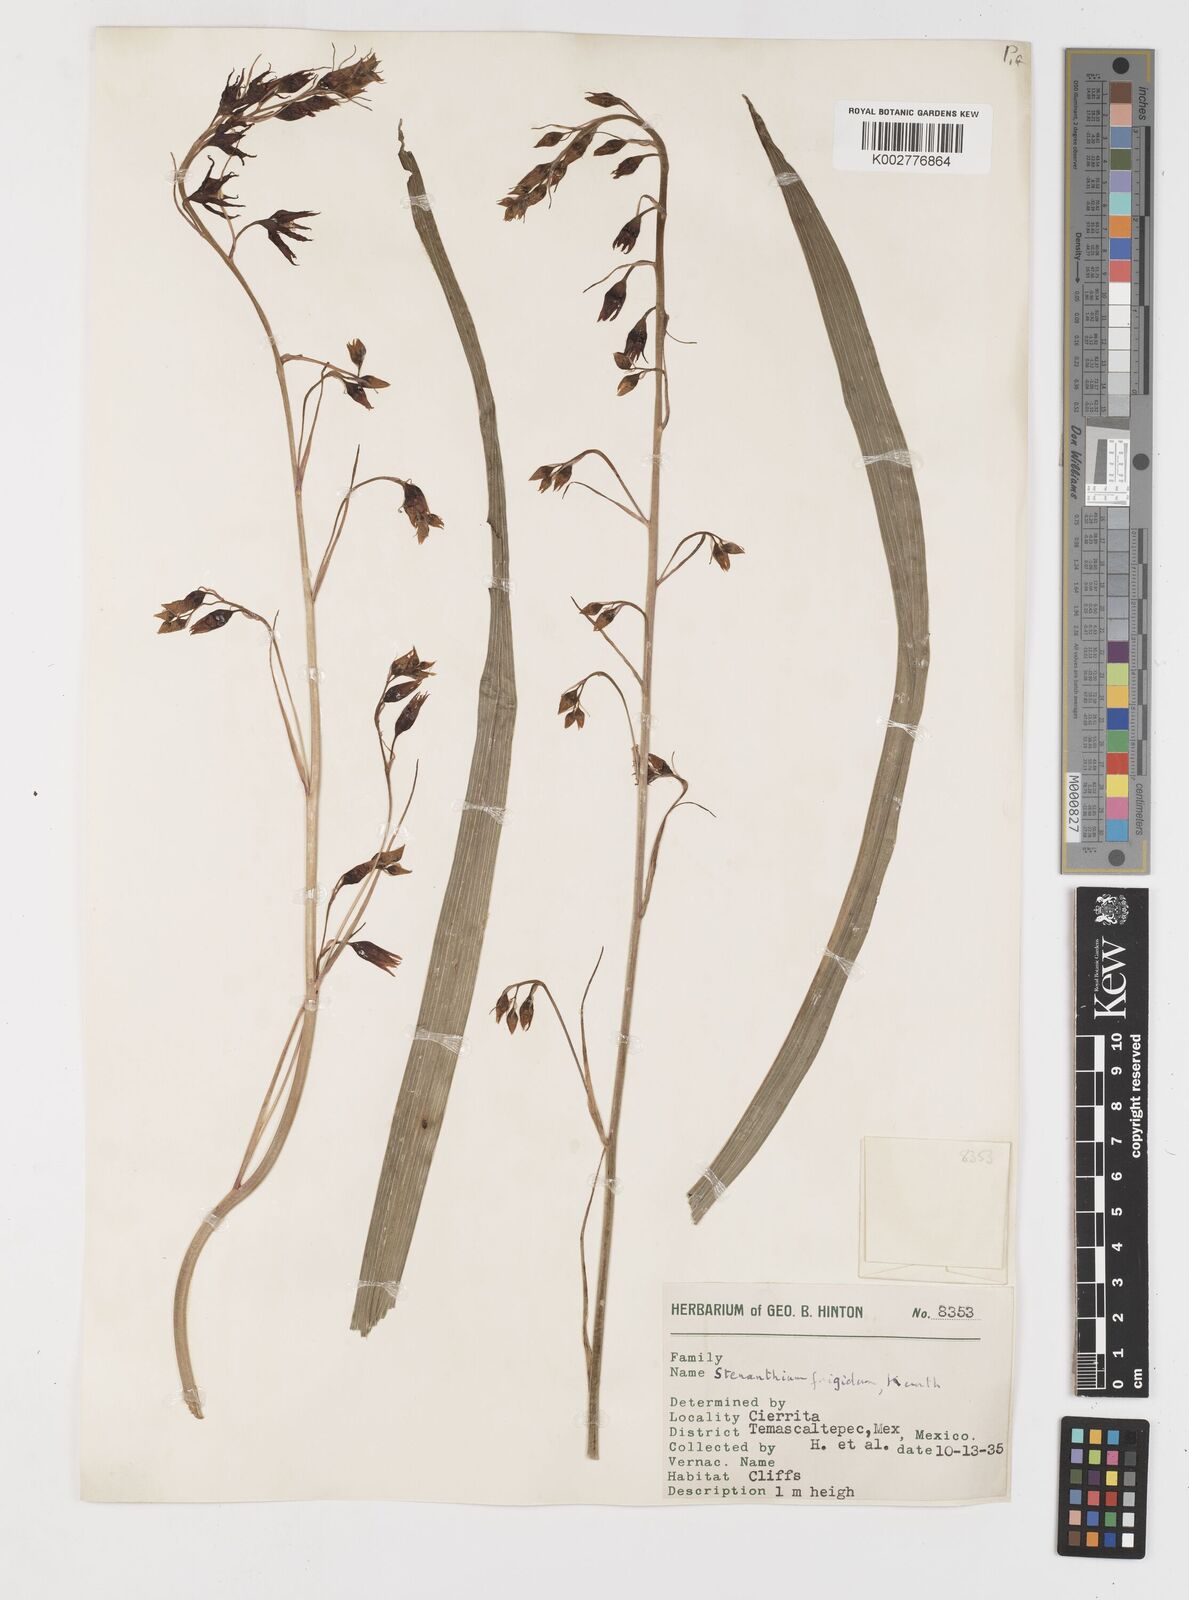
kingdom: Plantae
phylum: Tracheophyta
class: Liliopsida
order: Liliales
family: Melanthiaceae
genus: Anticlea
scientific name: Anticlea frigida
